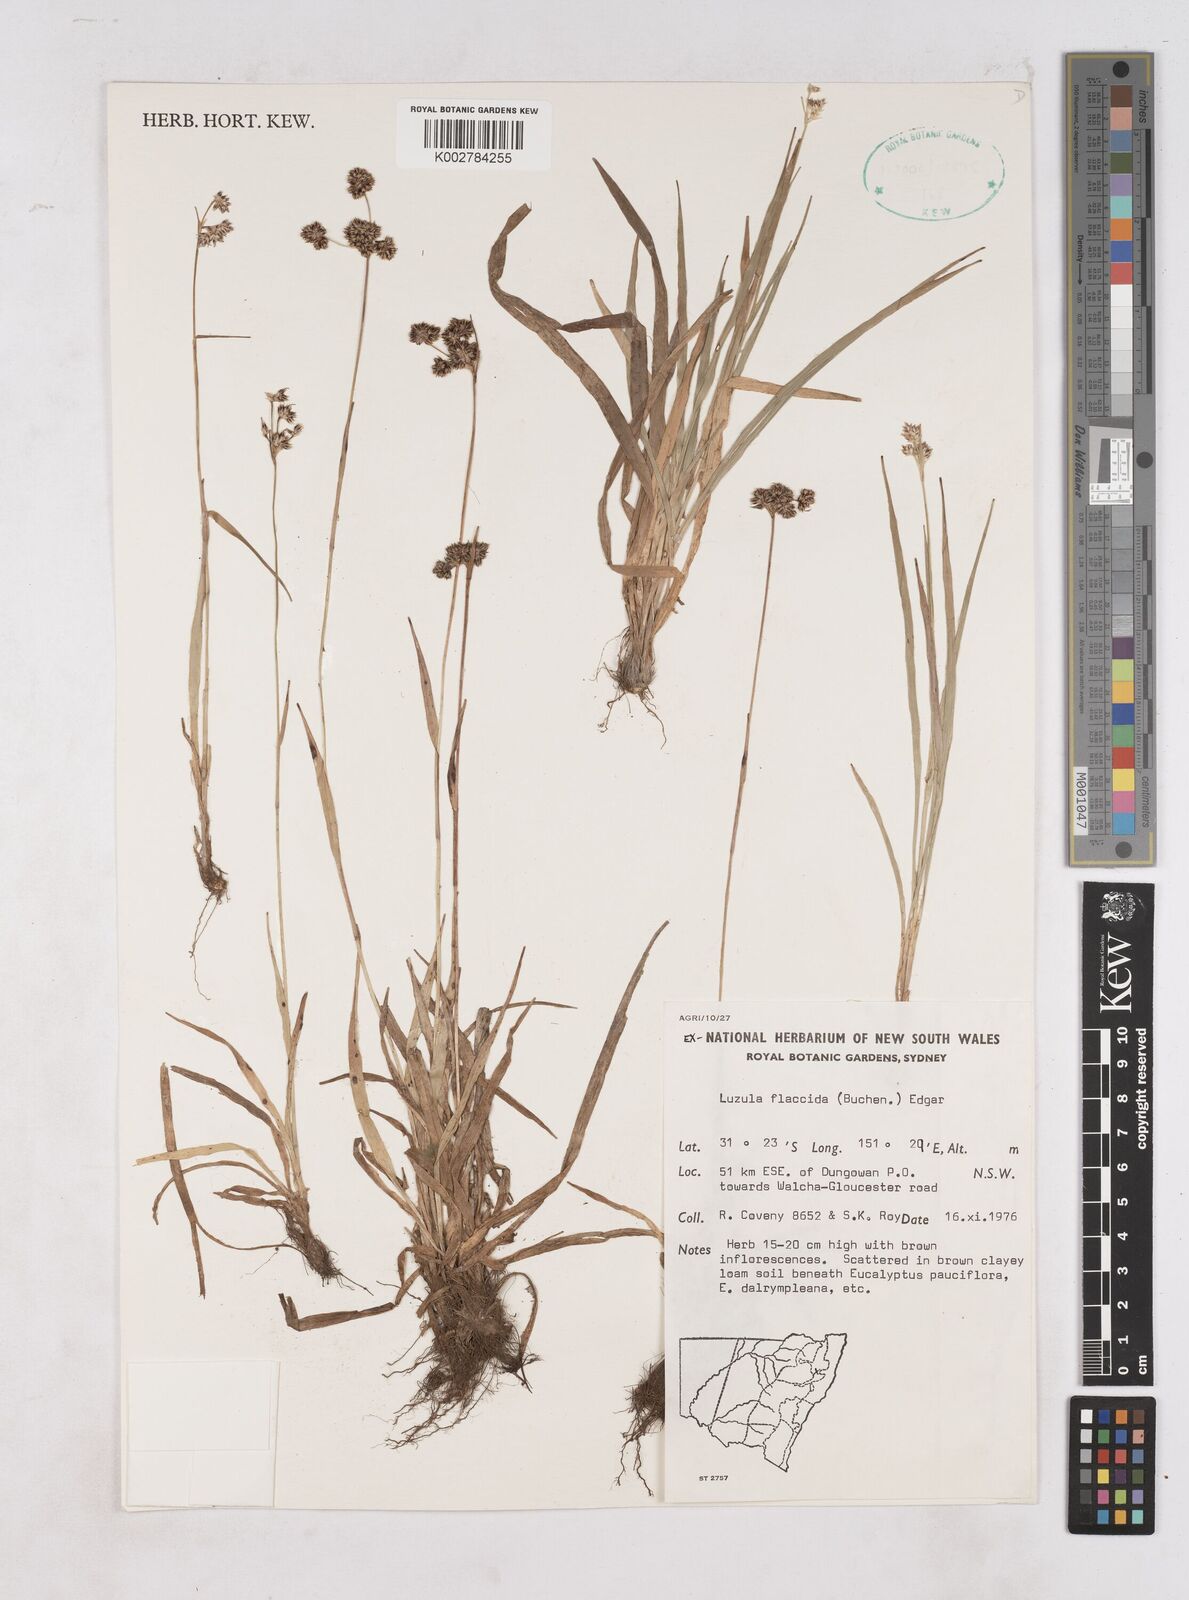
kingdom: Plantae
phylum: Tracheophyta
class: Liliopsida
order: Poales
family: Juncaceae
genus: Luzula
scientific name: Luzula flaccida
